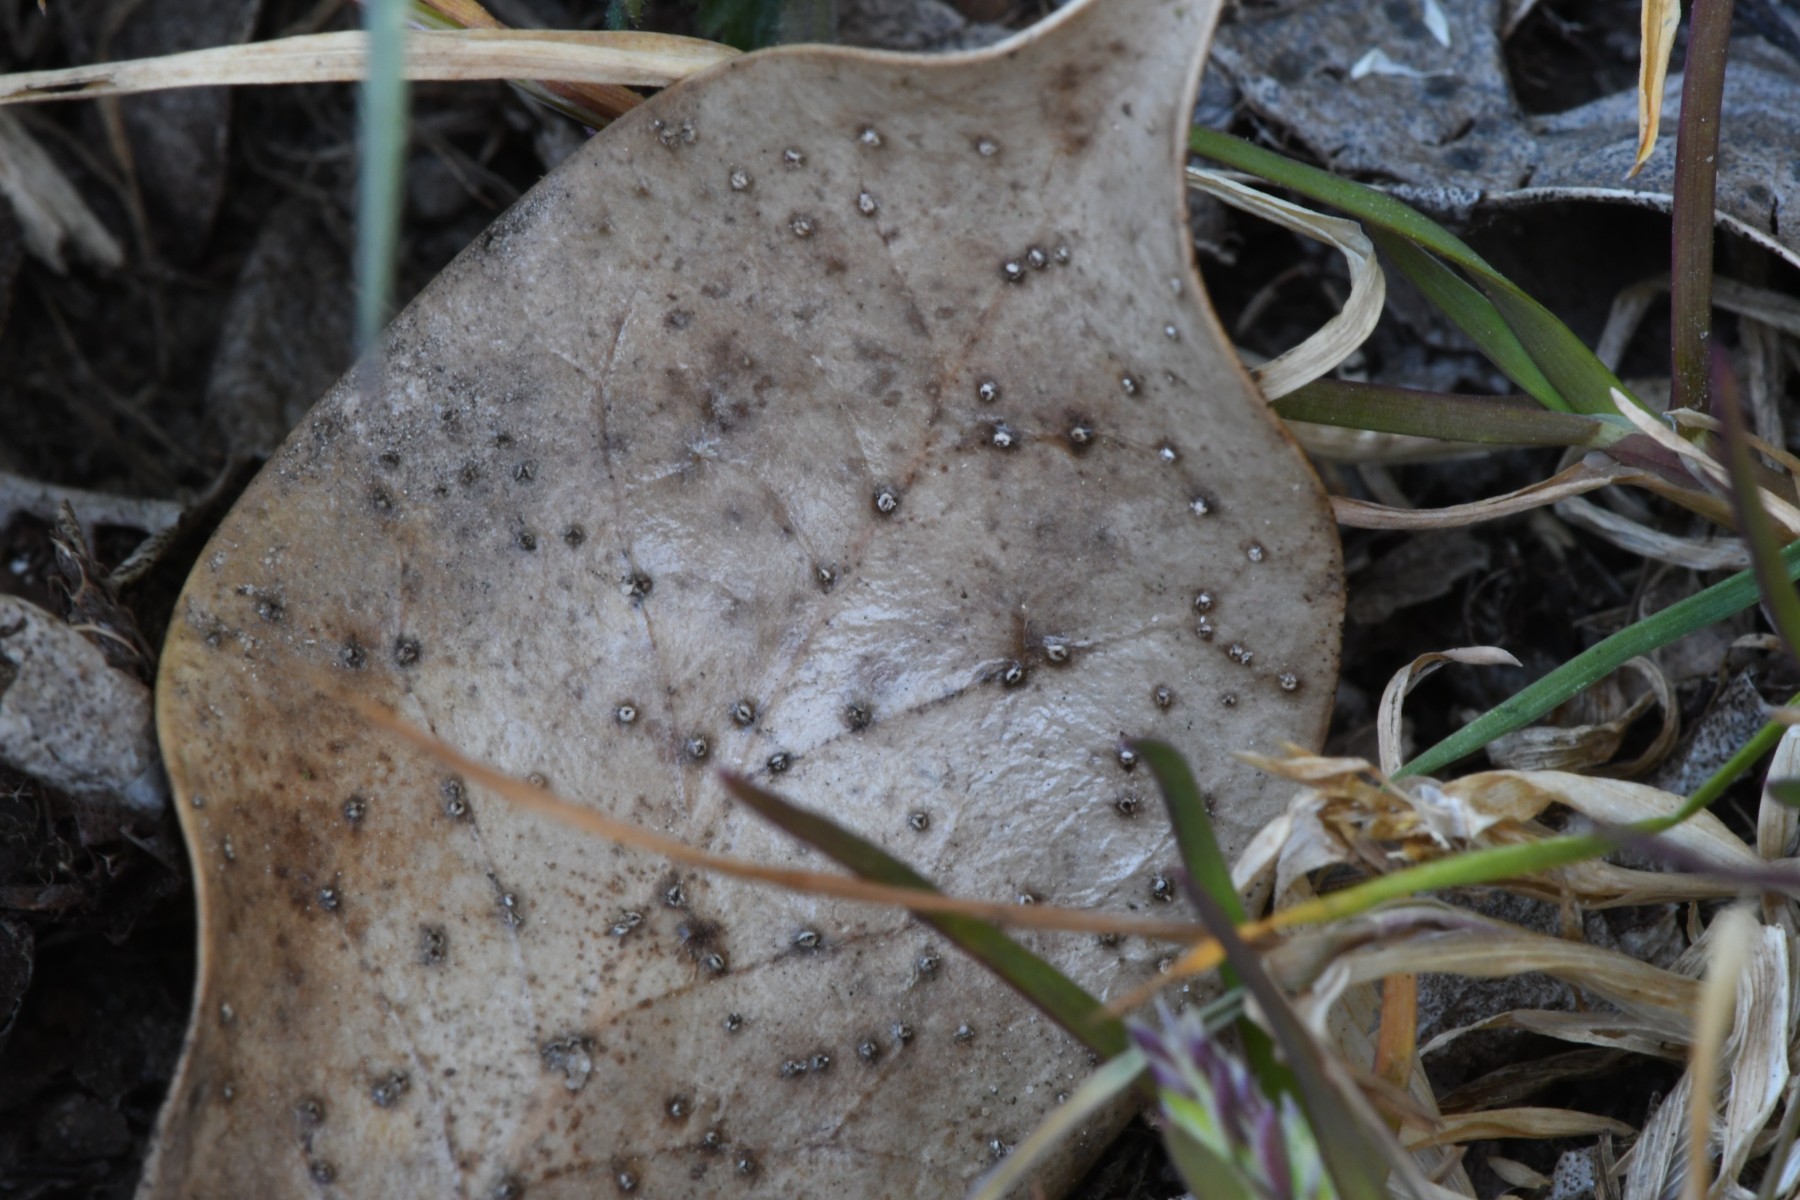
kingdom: Fungi
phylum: Ascomycota
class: Leotiomycetes
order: Phacidiales
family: Phacidiaceae
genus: Phacidium
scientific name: Phacidium lauri
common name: kristtorn-tandskive
